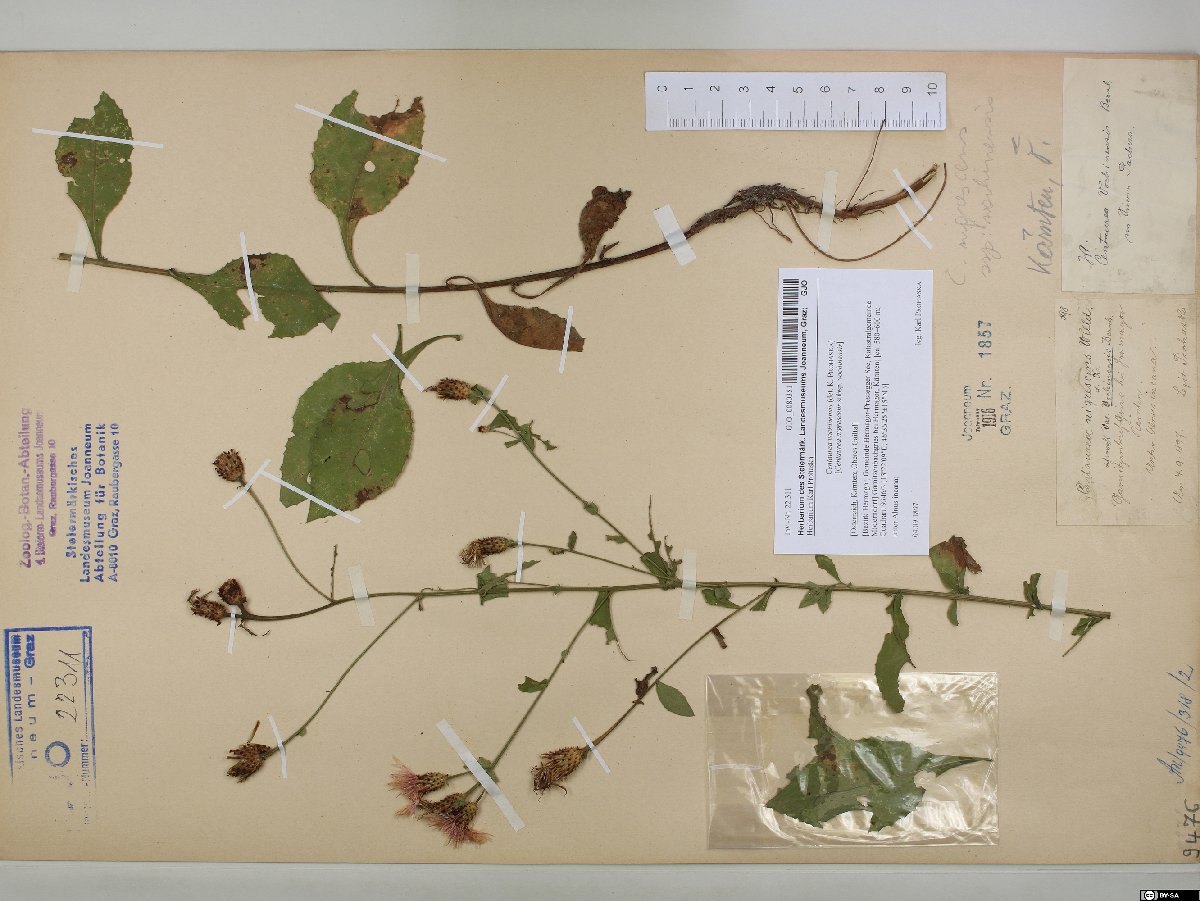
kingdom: Plantae
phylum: Tracheophyta
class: Magnoliopsida
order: Asterales
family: Asteraceae
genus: Centaurea
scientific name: Centaurea carniolica
